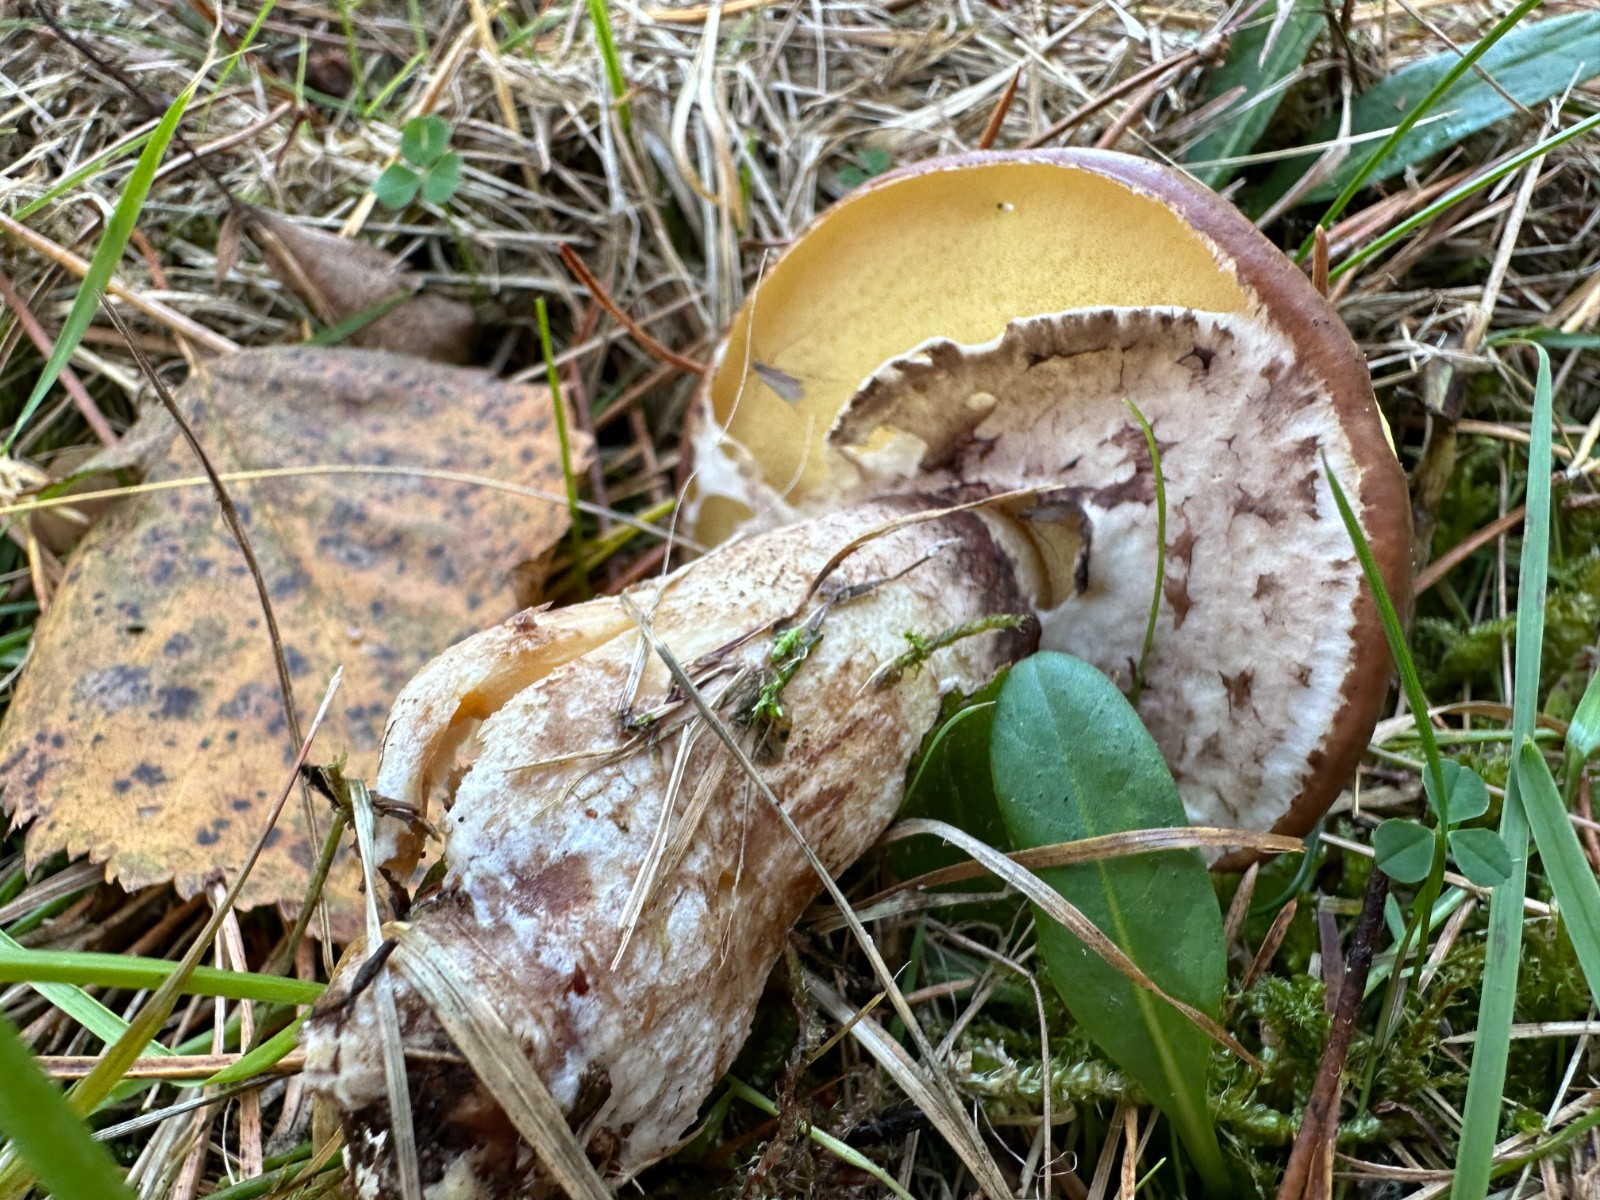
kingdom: Fungi
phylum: Basidiomycota
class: Agaricomycetes
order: Boletales
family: Suillaceae
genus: Suillus
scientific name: Suillus luteus
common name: brungul slimrørhat
